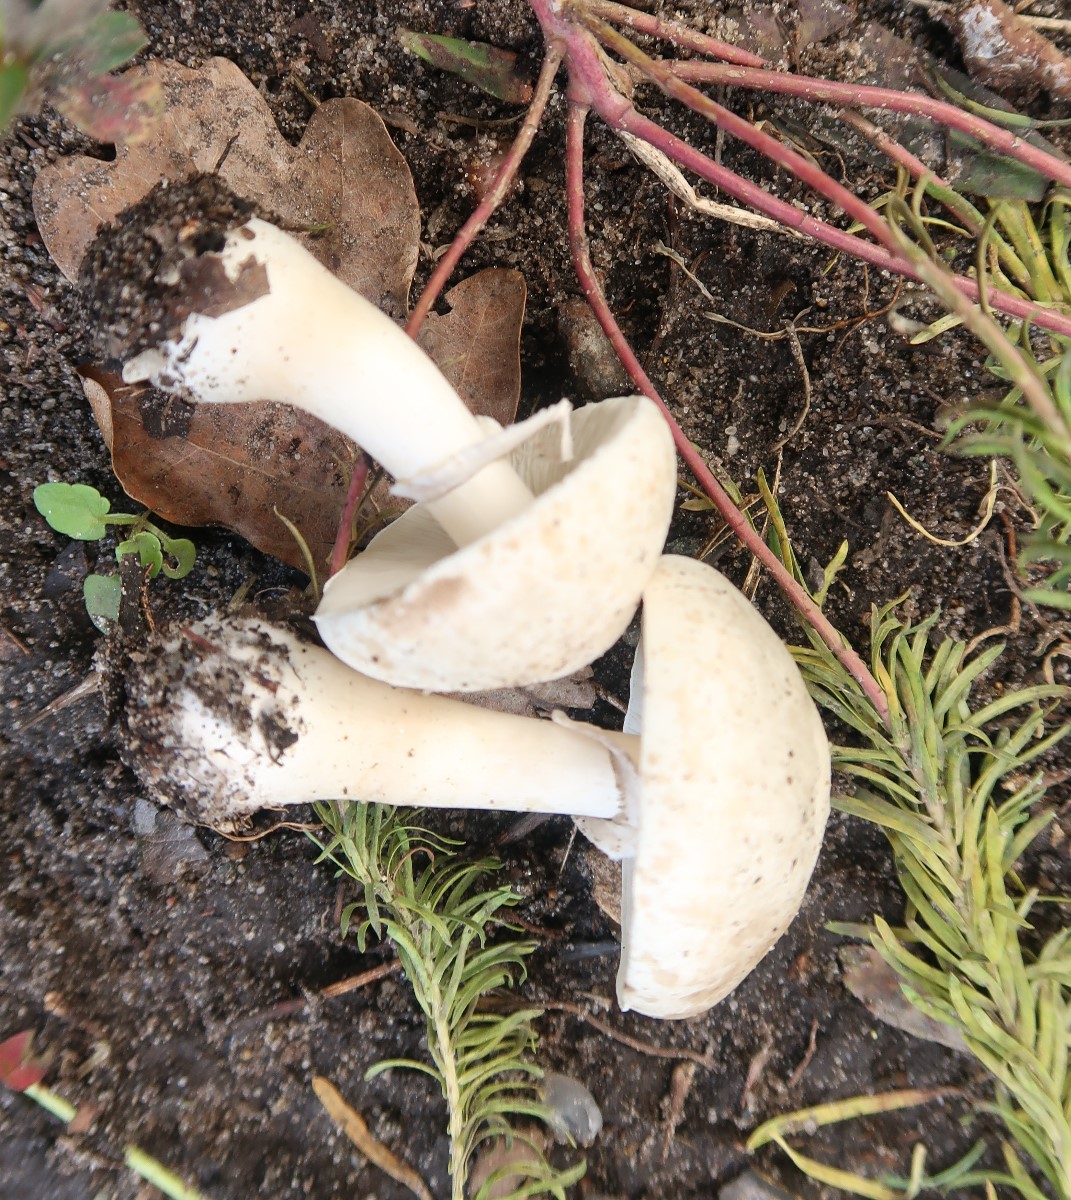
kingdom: Fungi
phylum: Basidiomycota
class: Agaricomycetes
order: Agaricales
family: Agaricaceae
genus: Leucoagaricus
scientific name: Leucoagaricus leucothites
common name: rosabladet silkehat
